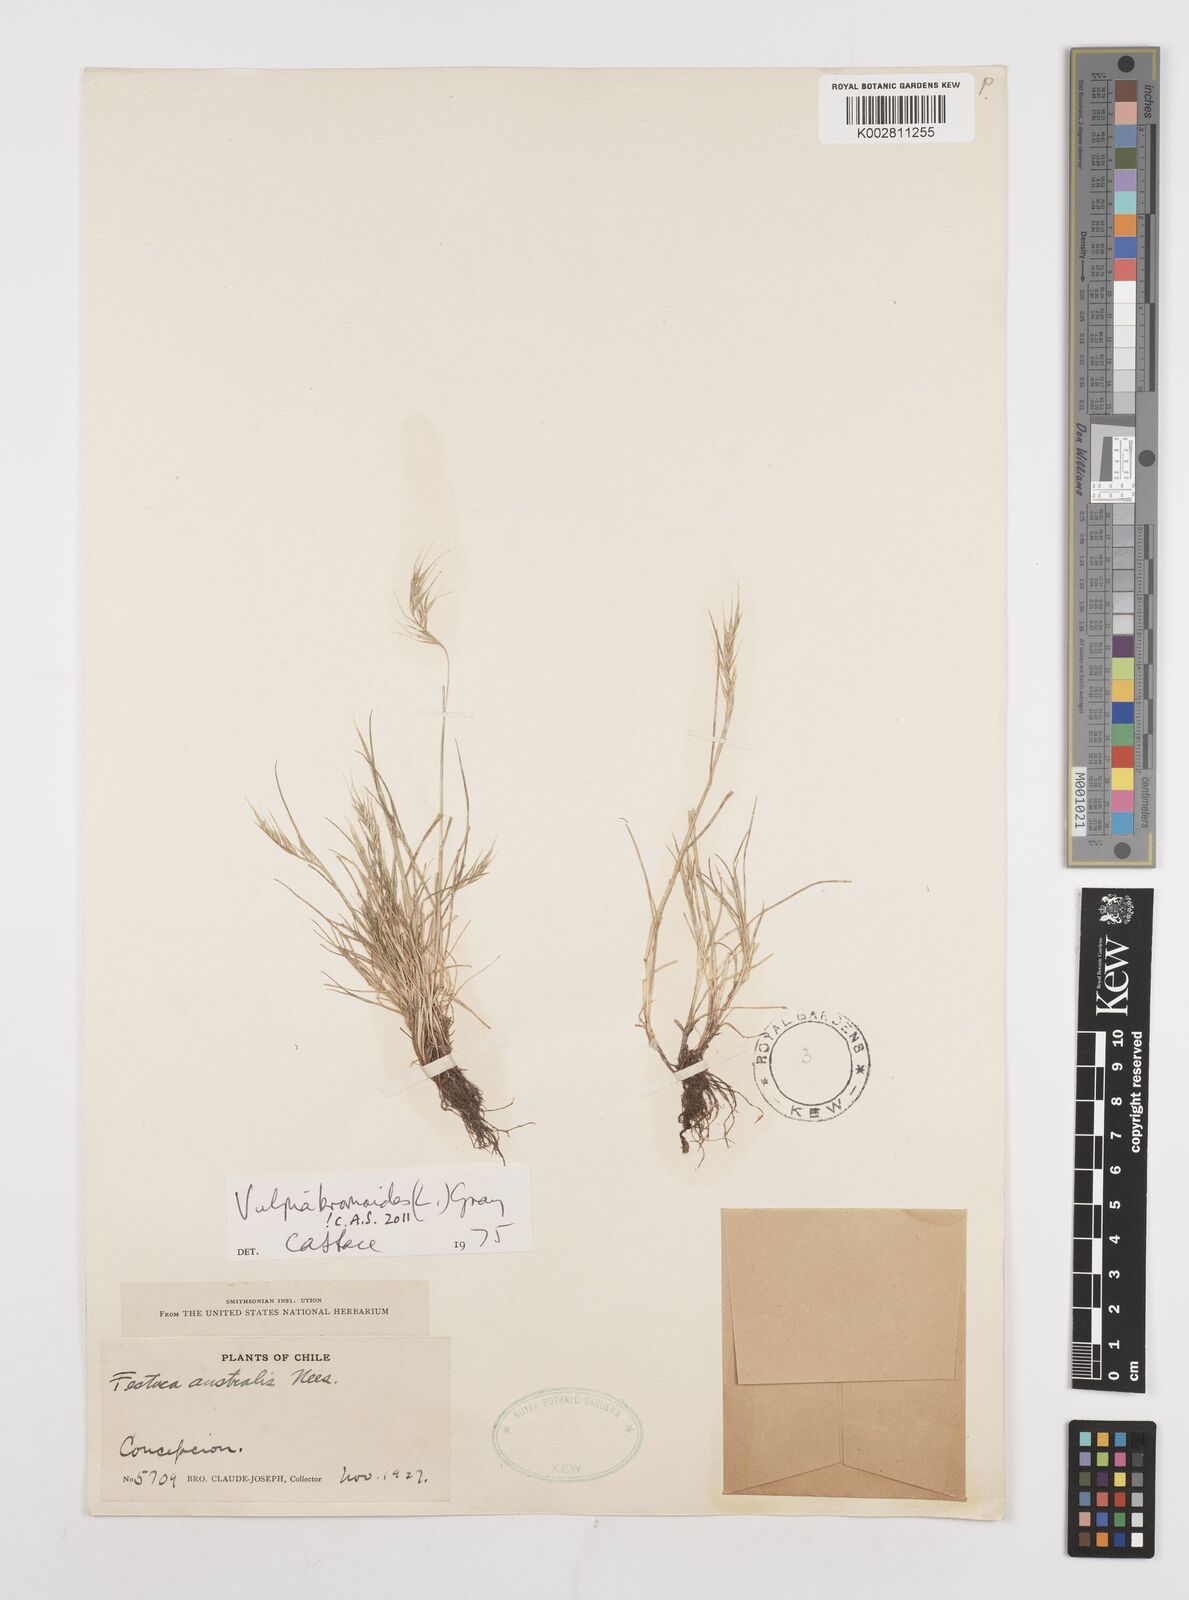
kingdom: Plantae
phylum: Tracheophyta
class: Liliopsida
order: Poales
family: Poaceae
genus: Festuca
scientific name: Festuca bromoides
